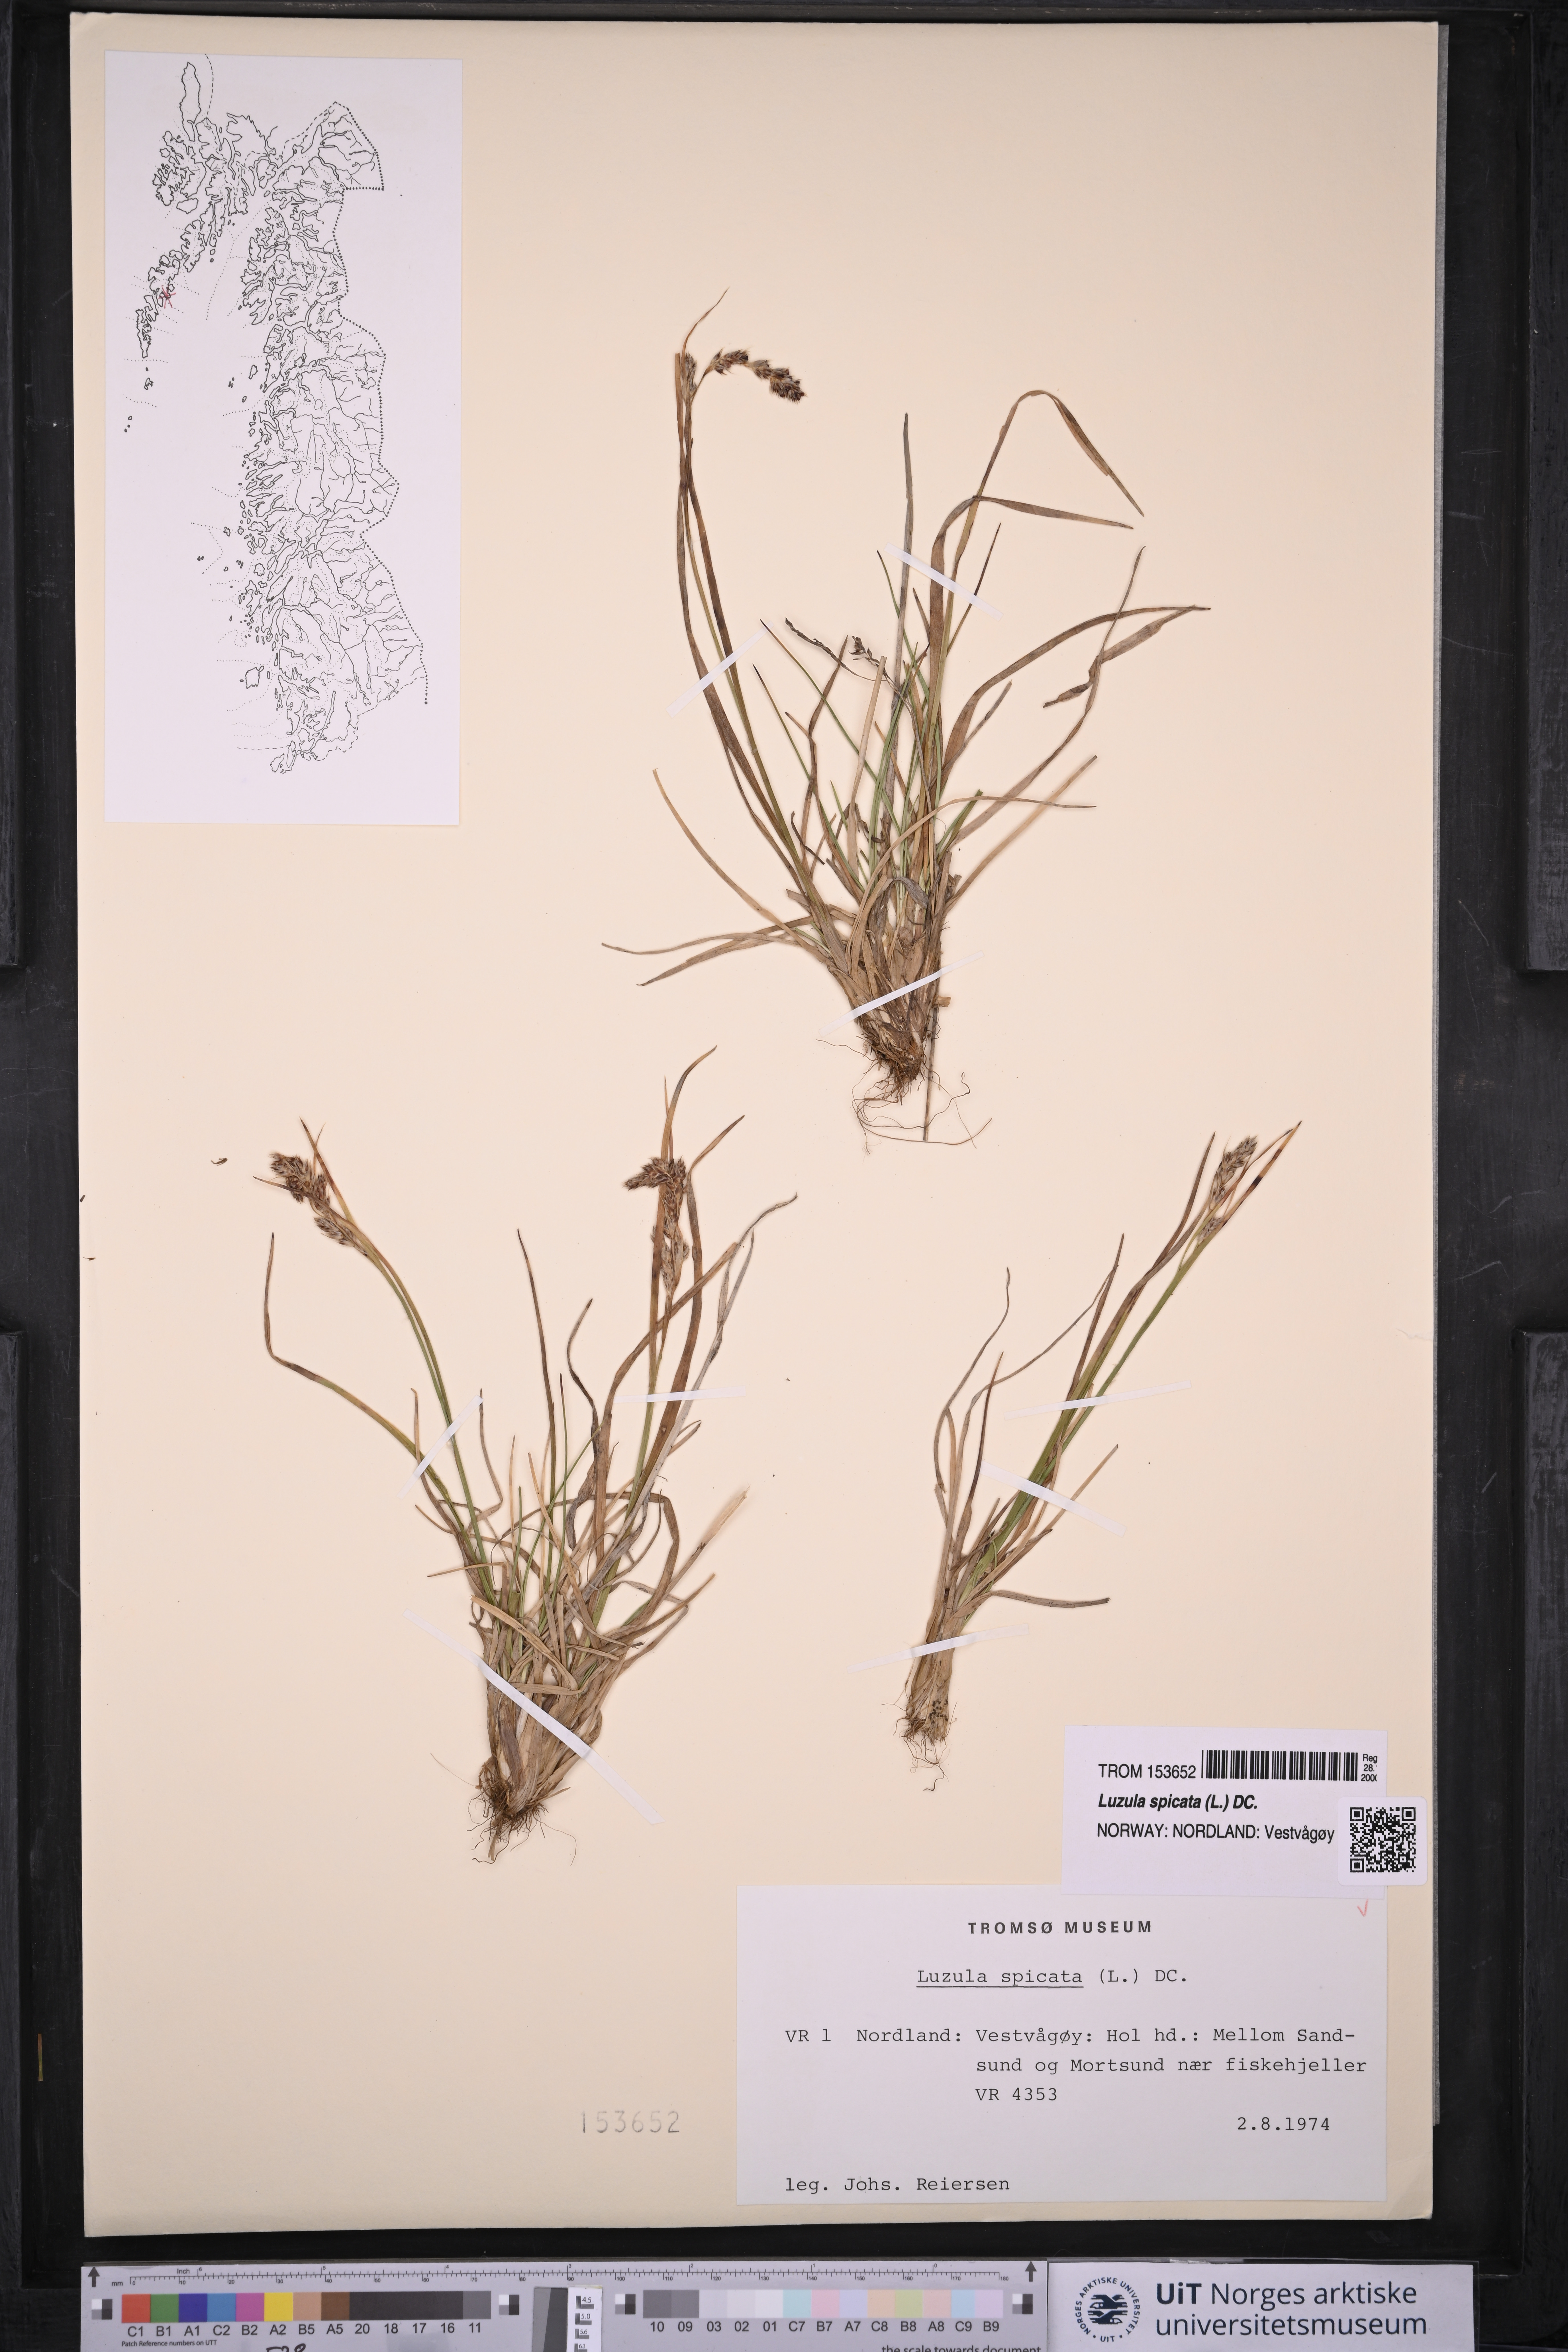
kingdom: Plantae
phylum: Tracheophyta
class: Liliopsida
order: Poales
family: Juncaceae
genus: Luzula
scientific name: Luzula spicata
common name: Spiked wood-rush
